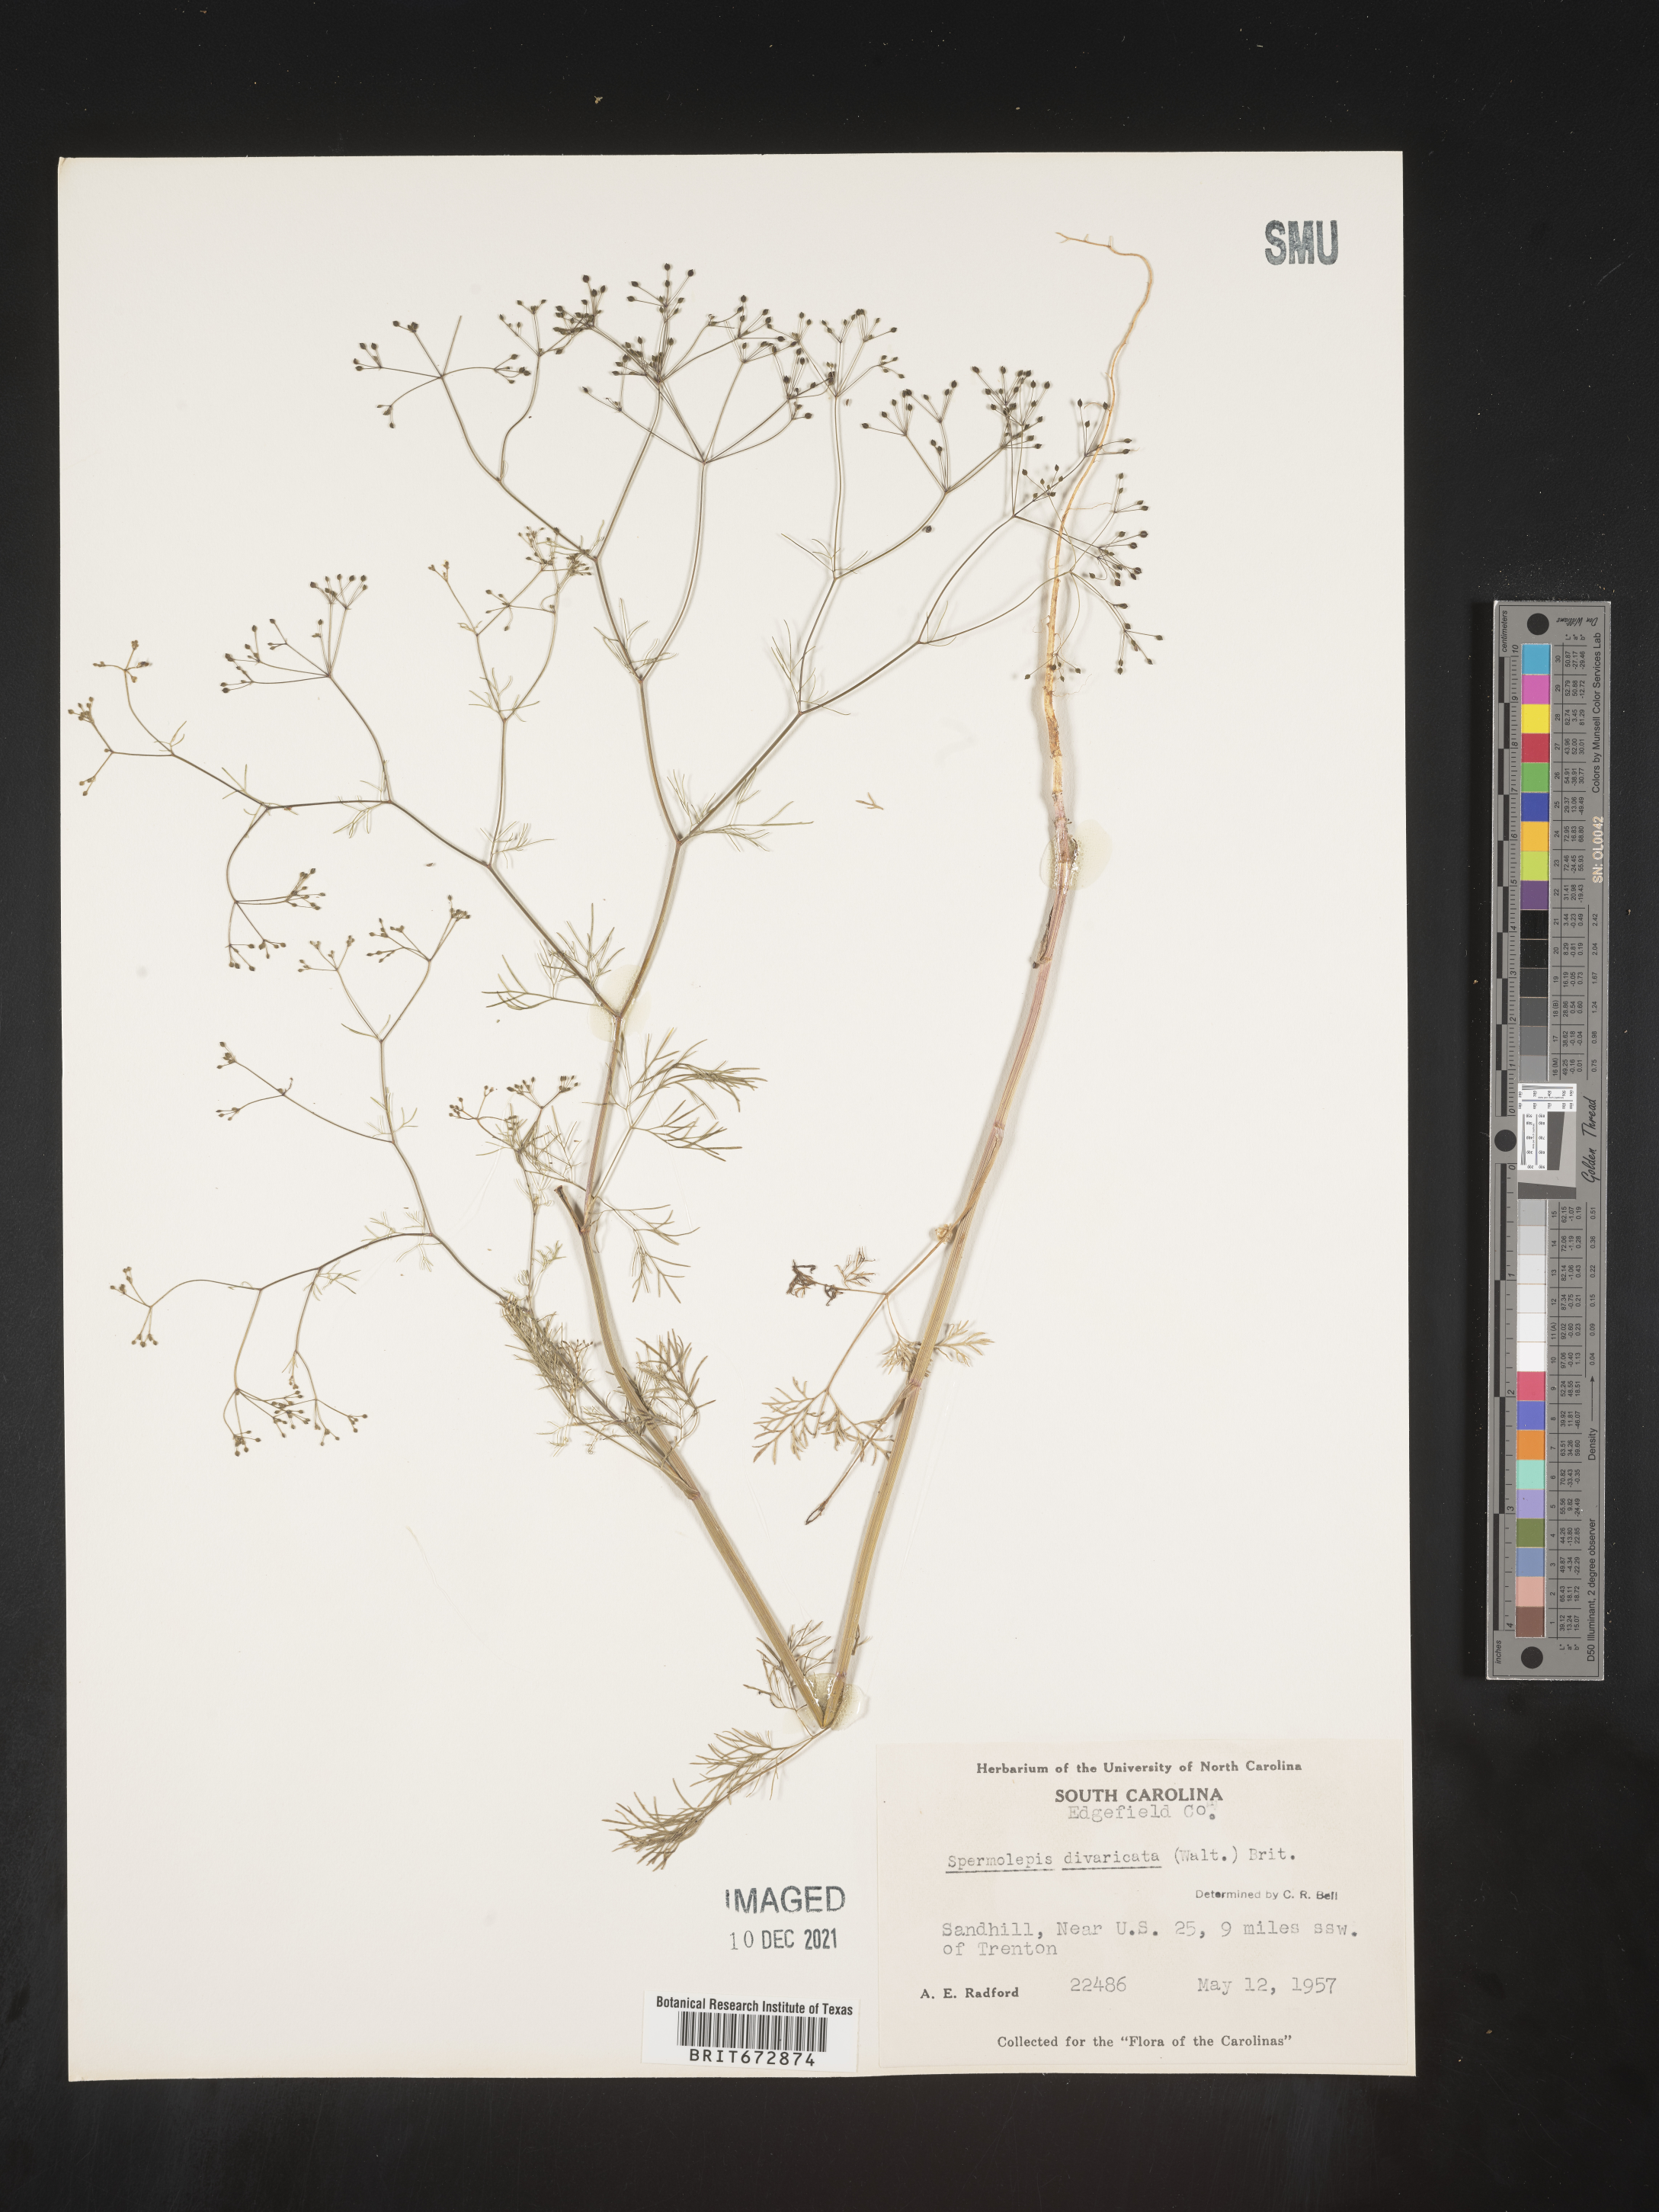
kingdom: Plantae
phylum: Tracheophyta
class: Magnoliopsida
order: Apiales
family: Apiaceae
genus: Spermolepis
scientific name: Spermolepis divaricata
